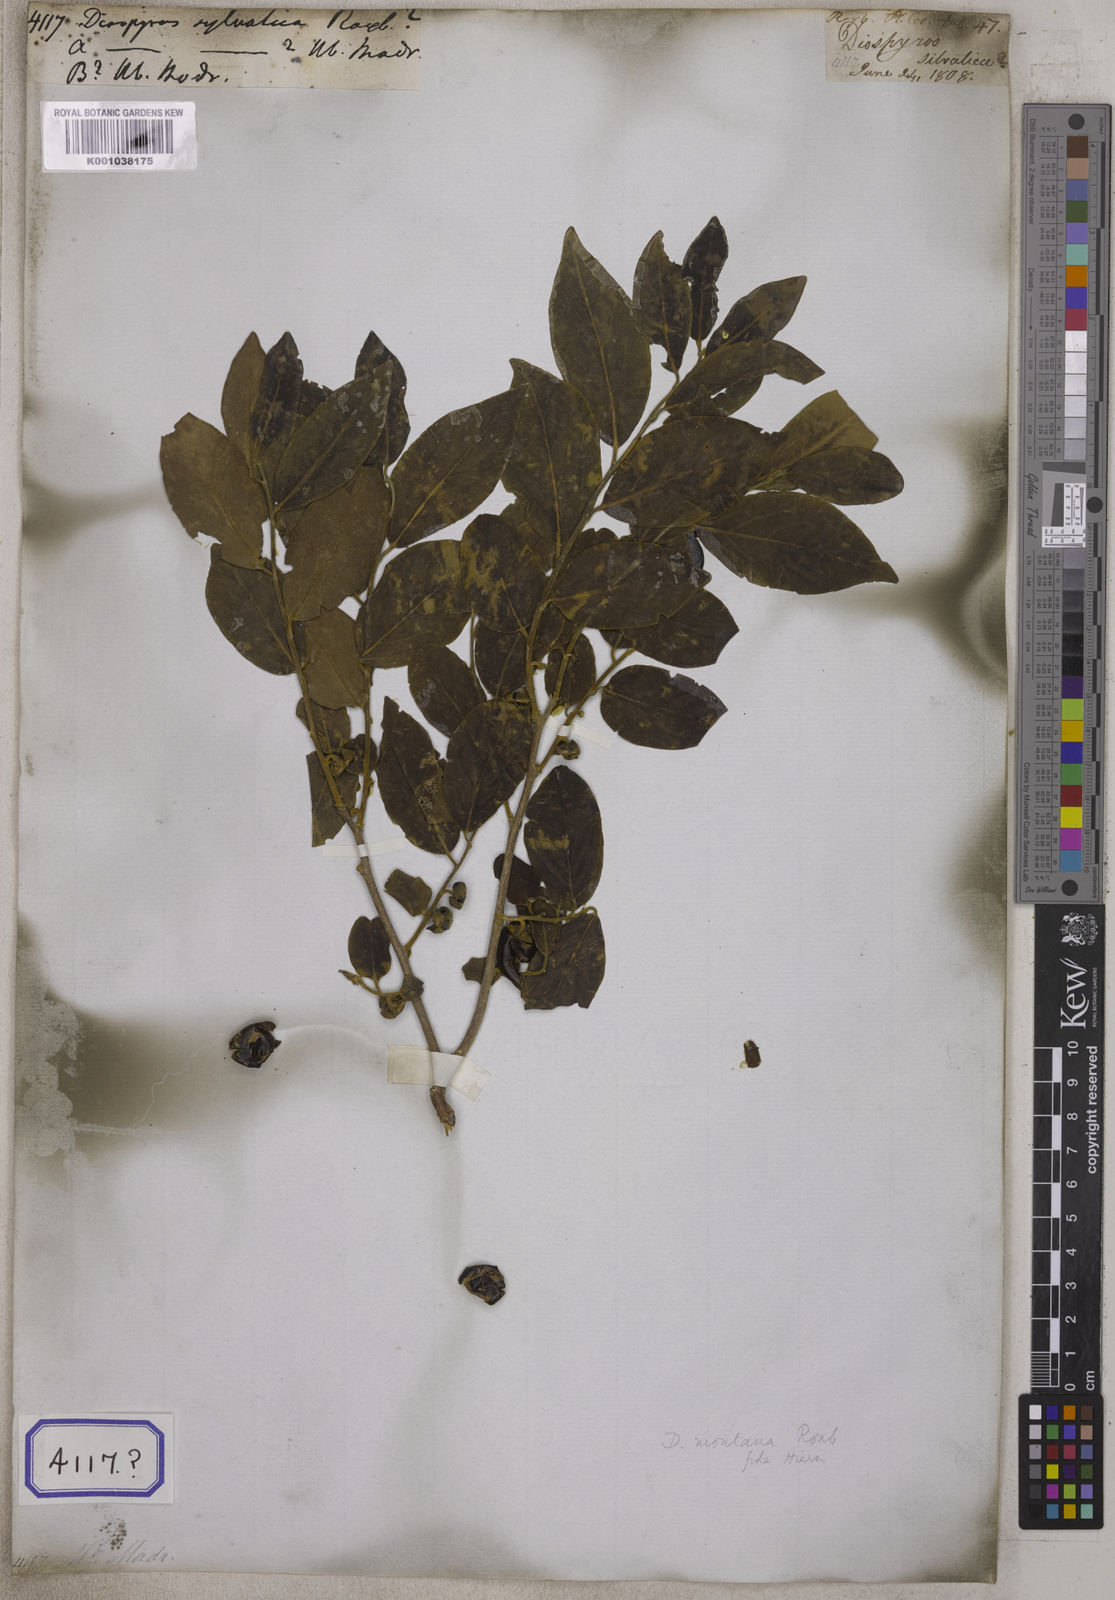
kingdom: Plantae
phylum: Tracheophyta
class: Magnoliopsida
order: Ericales
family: Ebenaceae
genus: Diospyros
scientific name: Diospyros
